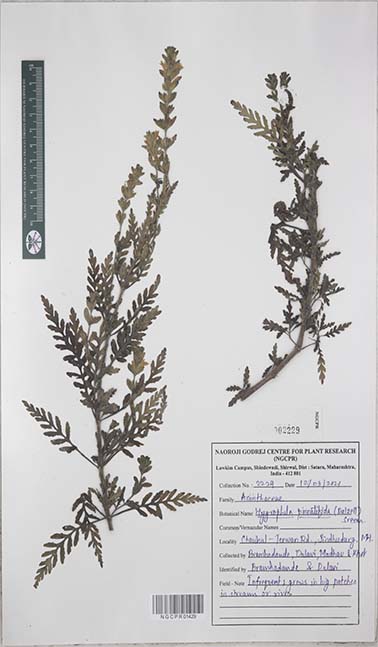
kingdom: Plantae
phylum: Tracheophyta
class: Magnoliopsida
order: Lamiales
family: Acanthaceae
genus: Hygrophila
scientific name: Hygrophila pinnatifida
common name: Indian swampweed
